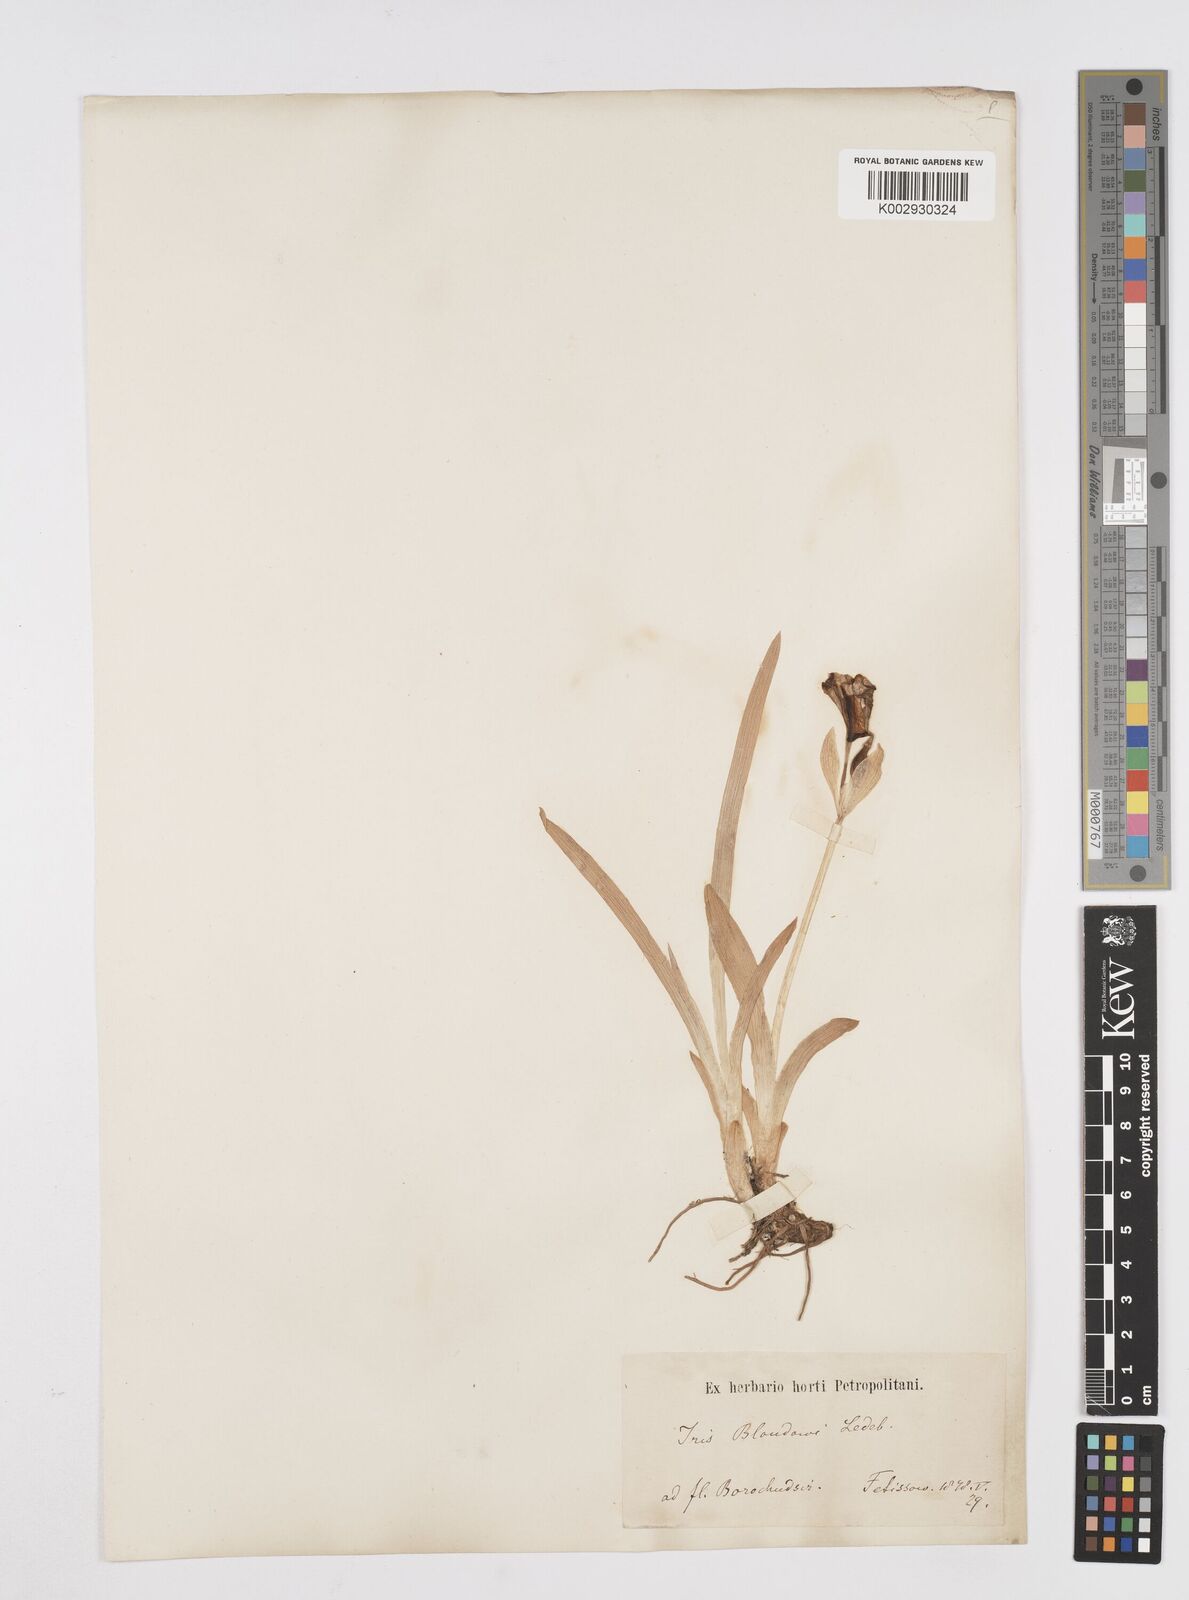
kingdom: Plantae
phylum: Tracheophyta
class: Liliopsida
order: Asparagales
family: Iridaceae
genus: Iris
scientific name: Iris bloudowii
